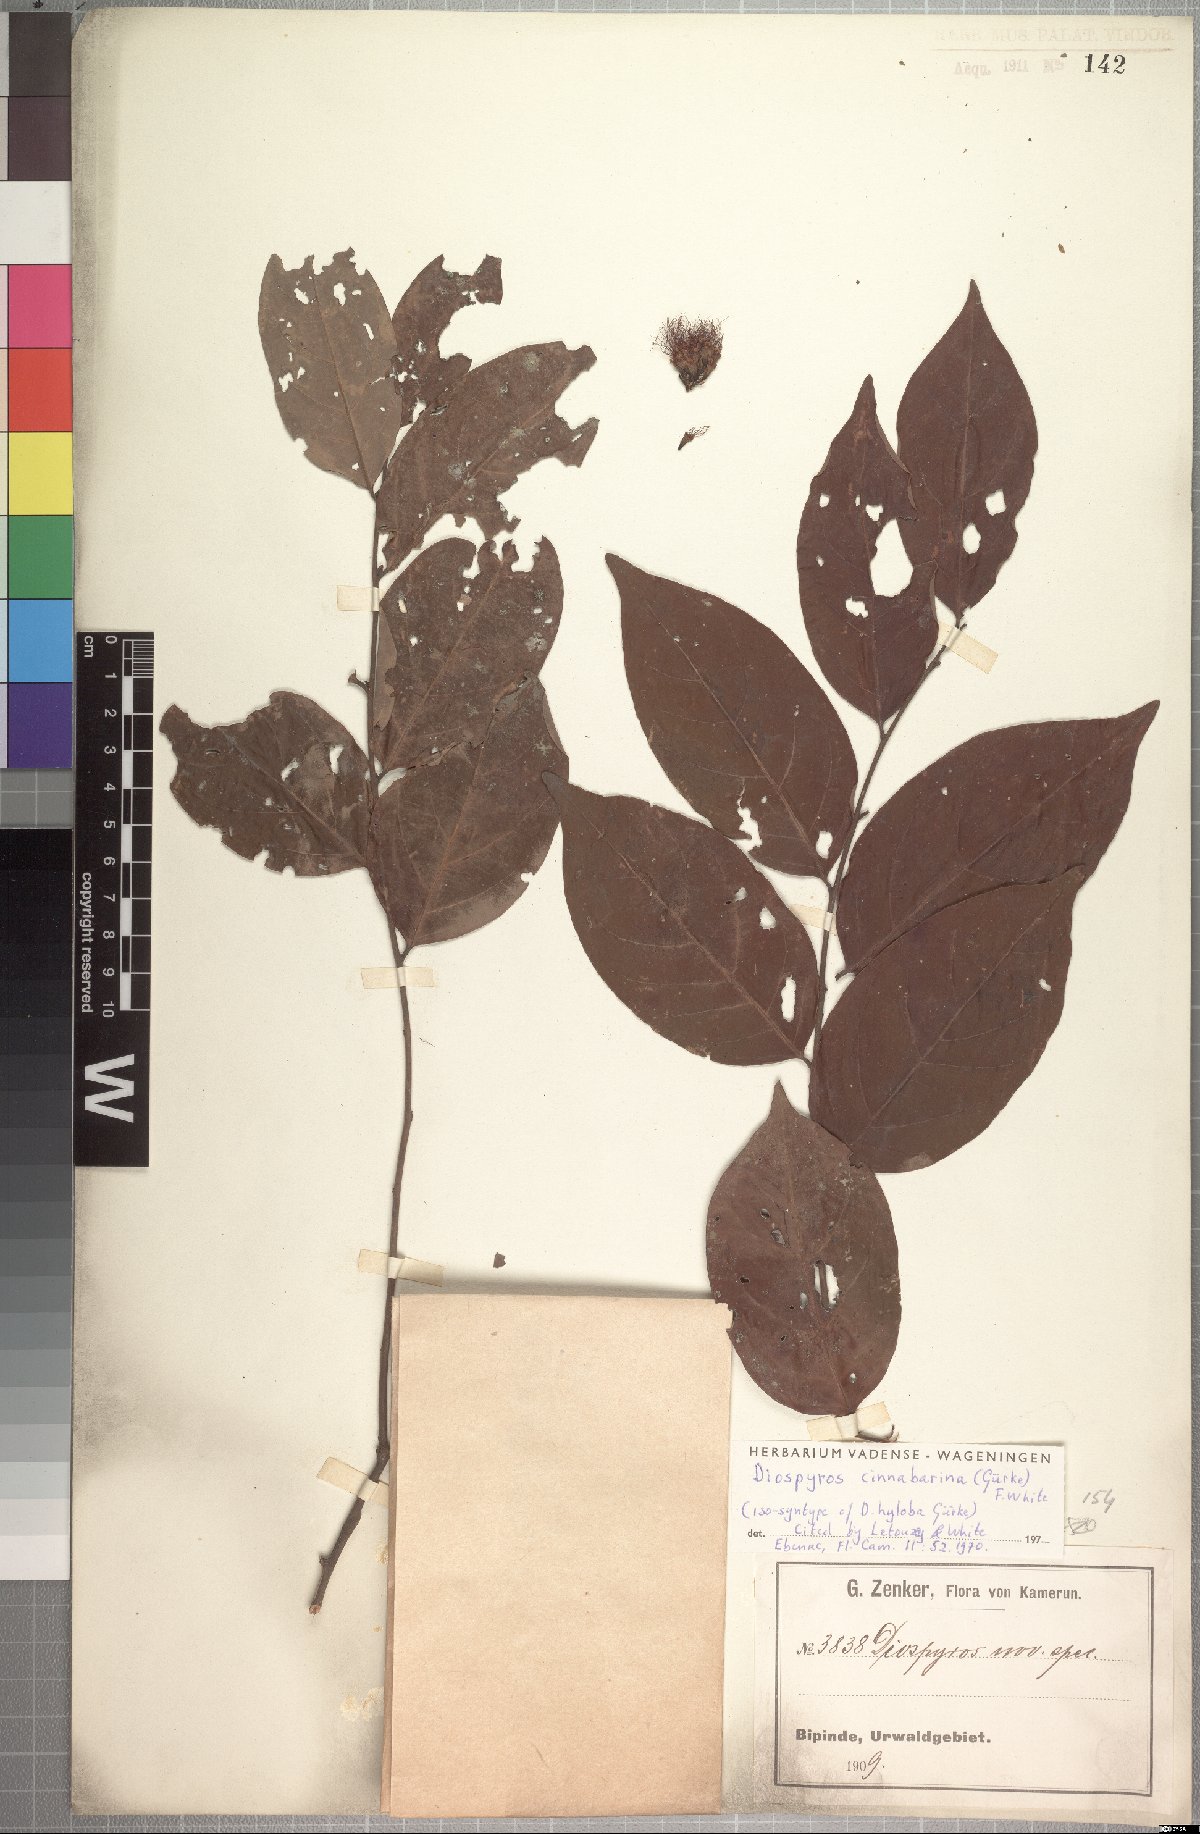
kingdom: Plantae
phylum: Tracheophyta
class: Magnoliopsida
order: Ericales
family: Ebenaceae
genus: Diospyros
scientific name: Diospyros cinnabarina
